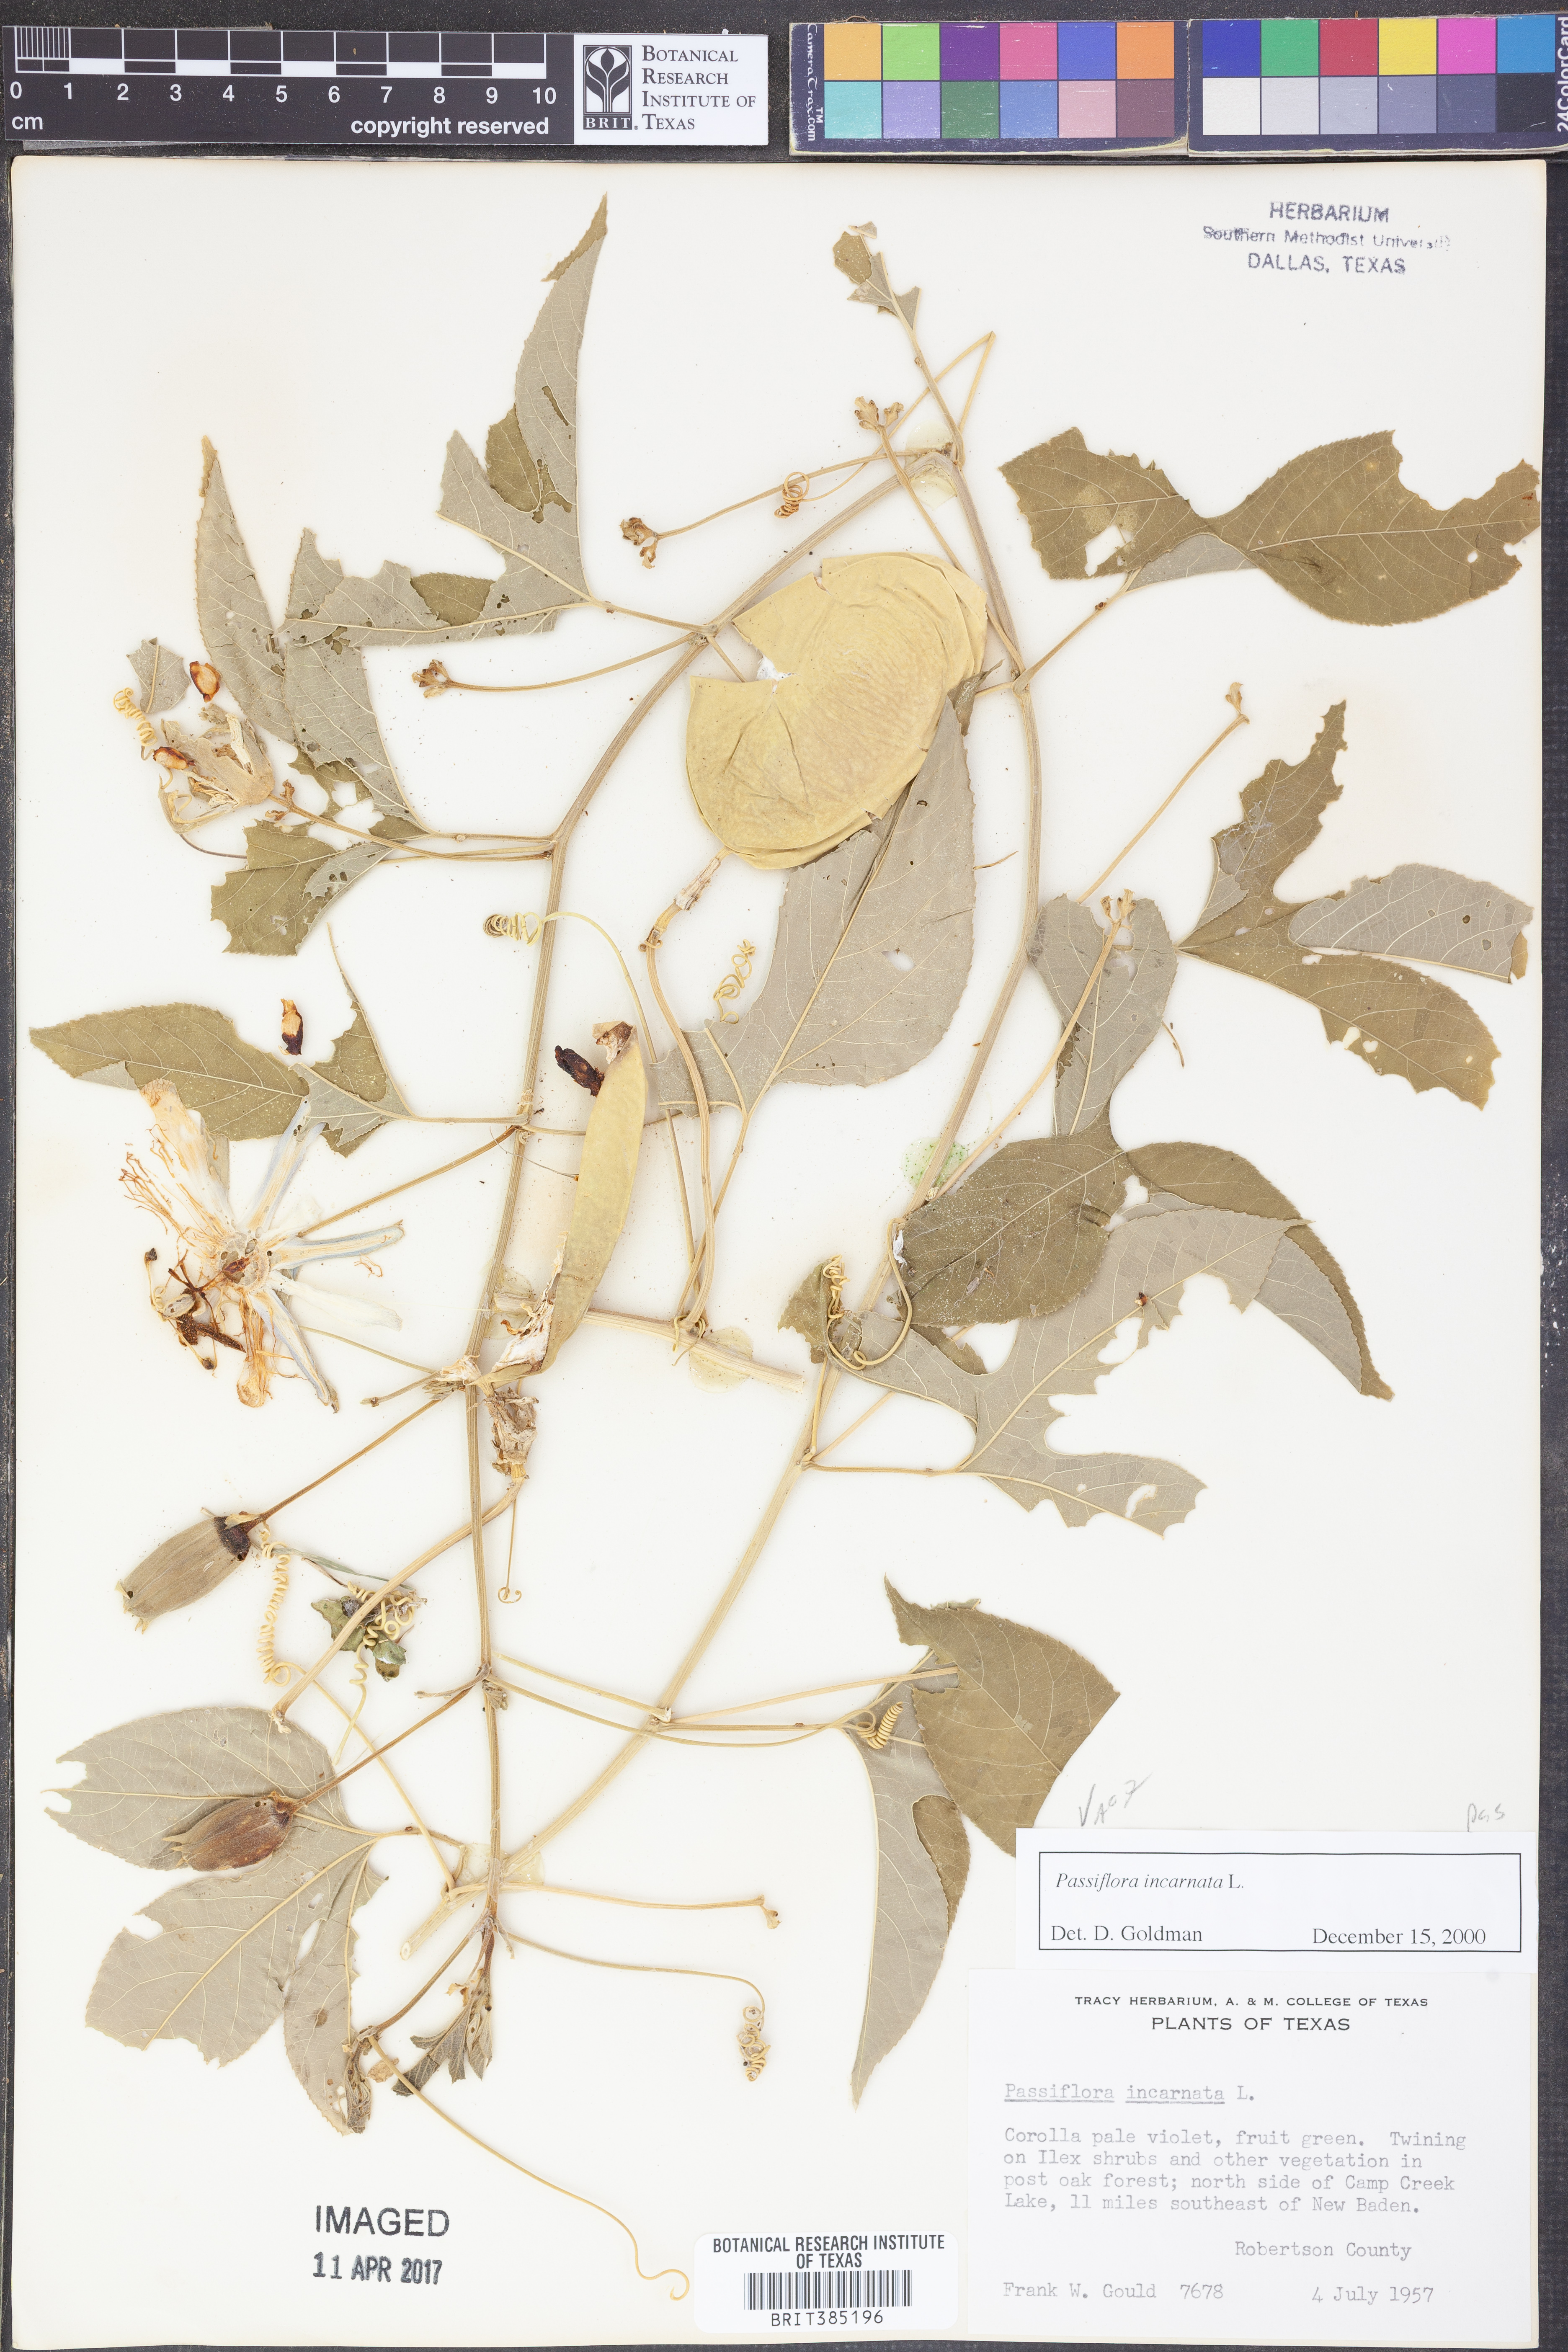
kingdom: Plantae
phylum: Tracheophyta
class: Magnoliopsida
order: Malpighiales
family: Passifloraceae
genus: Passiflora
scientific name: Passiflora incarnata
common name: Apricot-vine
